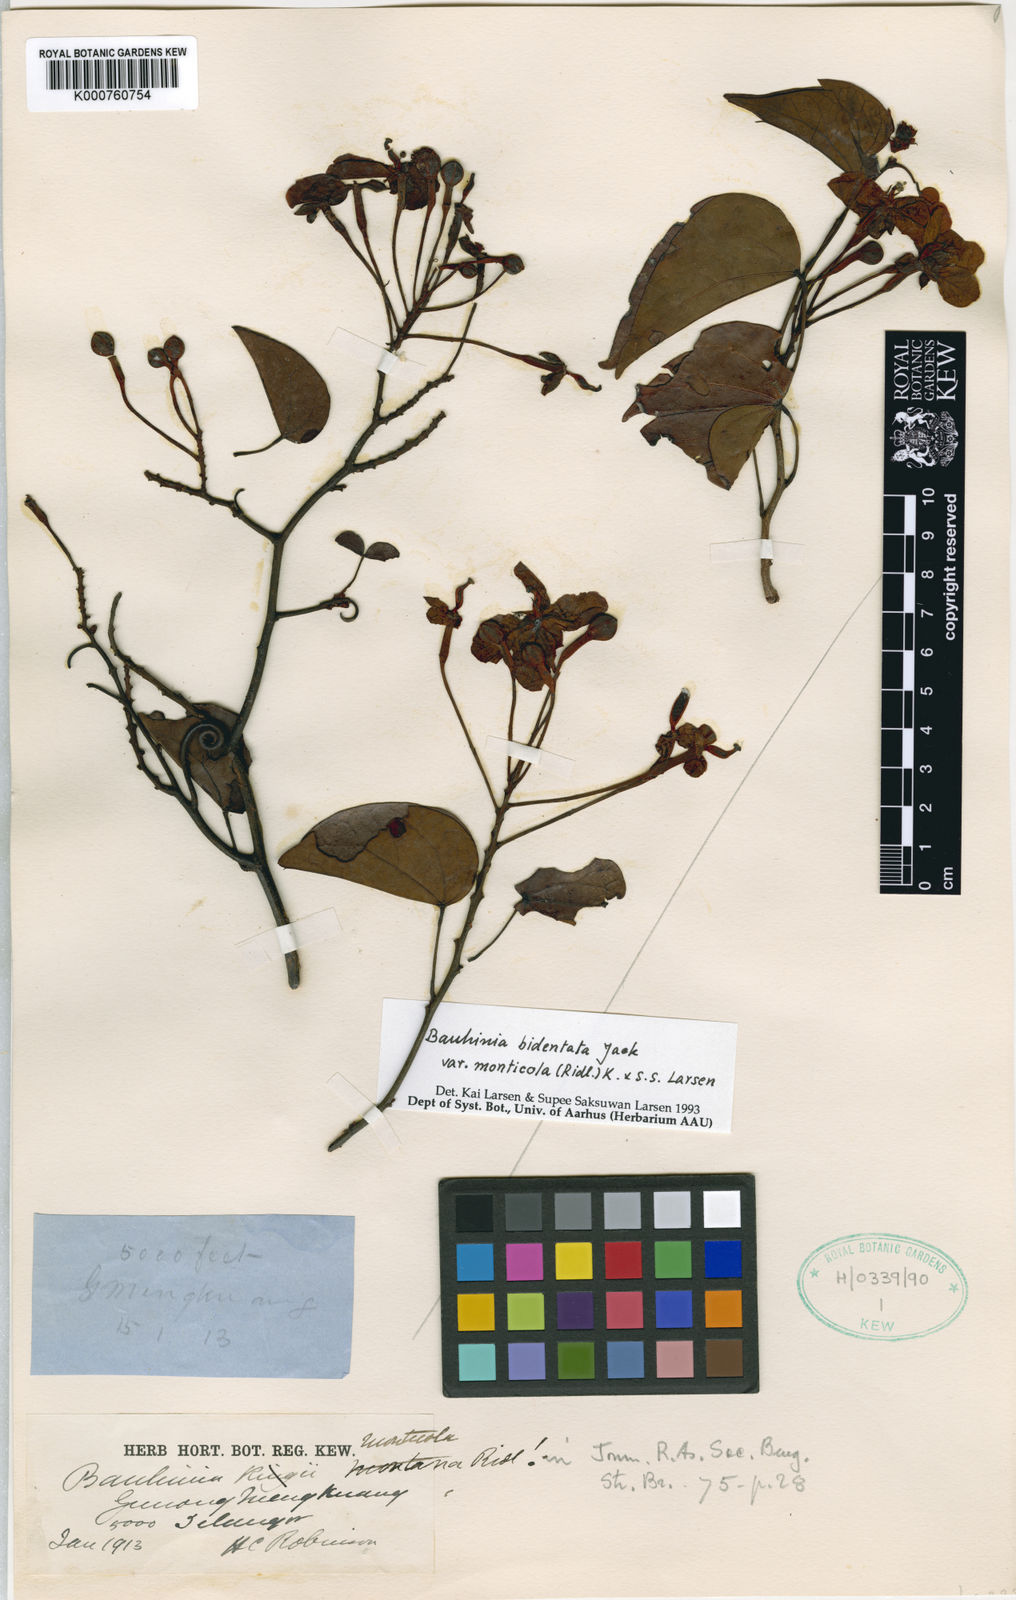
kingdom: Plantae
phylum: Tracheophyta
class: Magnoliopsida
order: Fabales
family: Fabaceae
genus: Phanera
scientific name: Phanera bidentata
